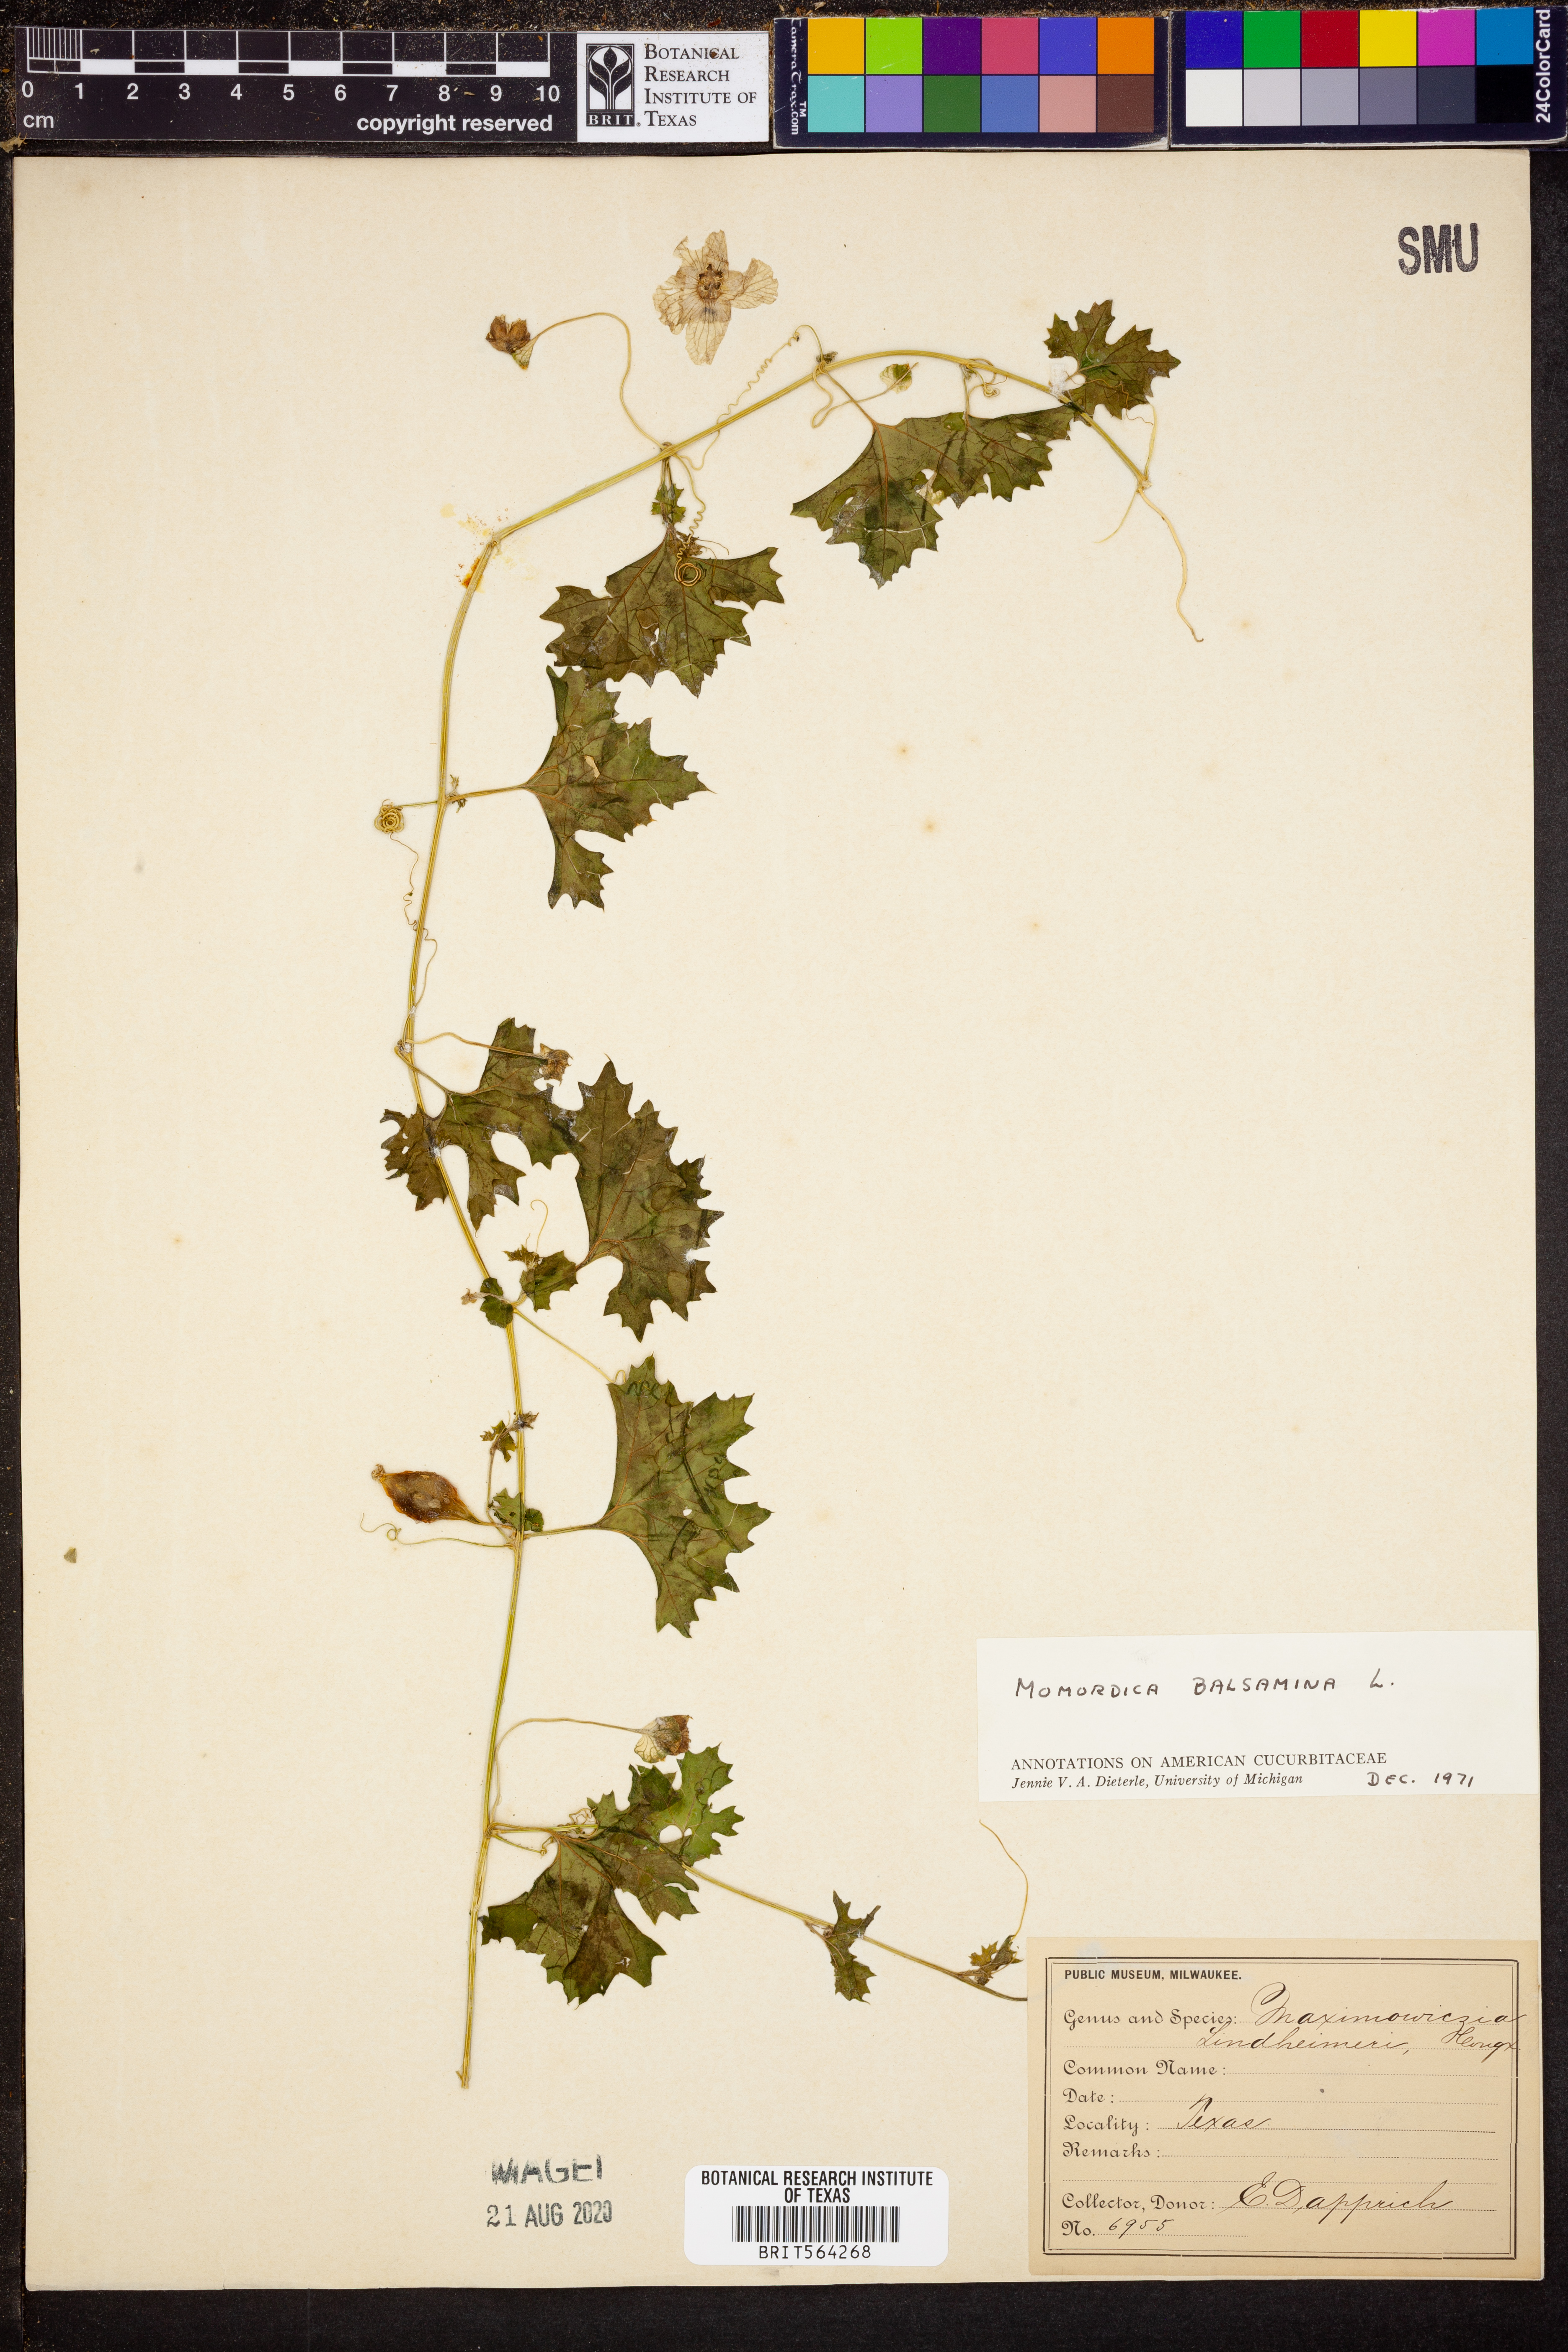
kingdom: Plantae
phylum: Tracheophyta
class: Magnoliopsida
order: Cucurbitales
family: Cucurbitaceae
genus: Momordica
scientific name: Momordica balsamina
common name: Southern balsampear
